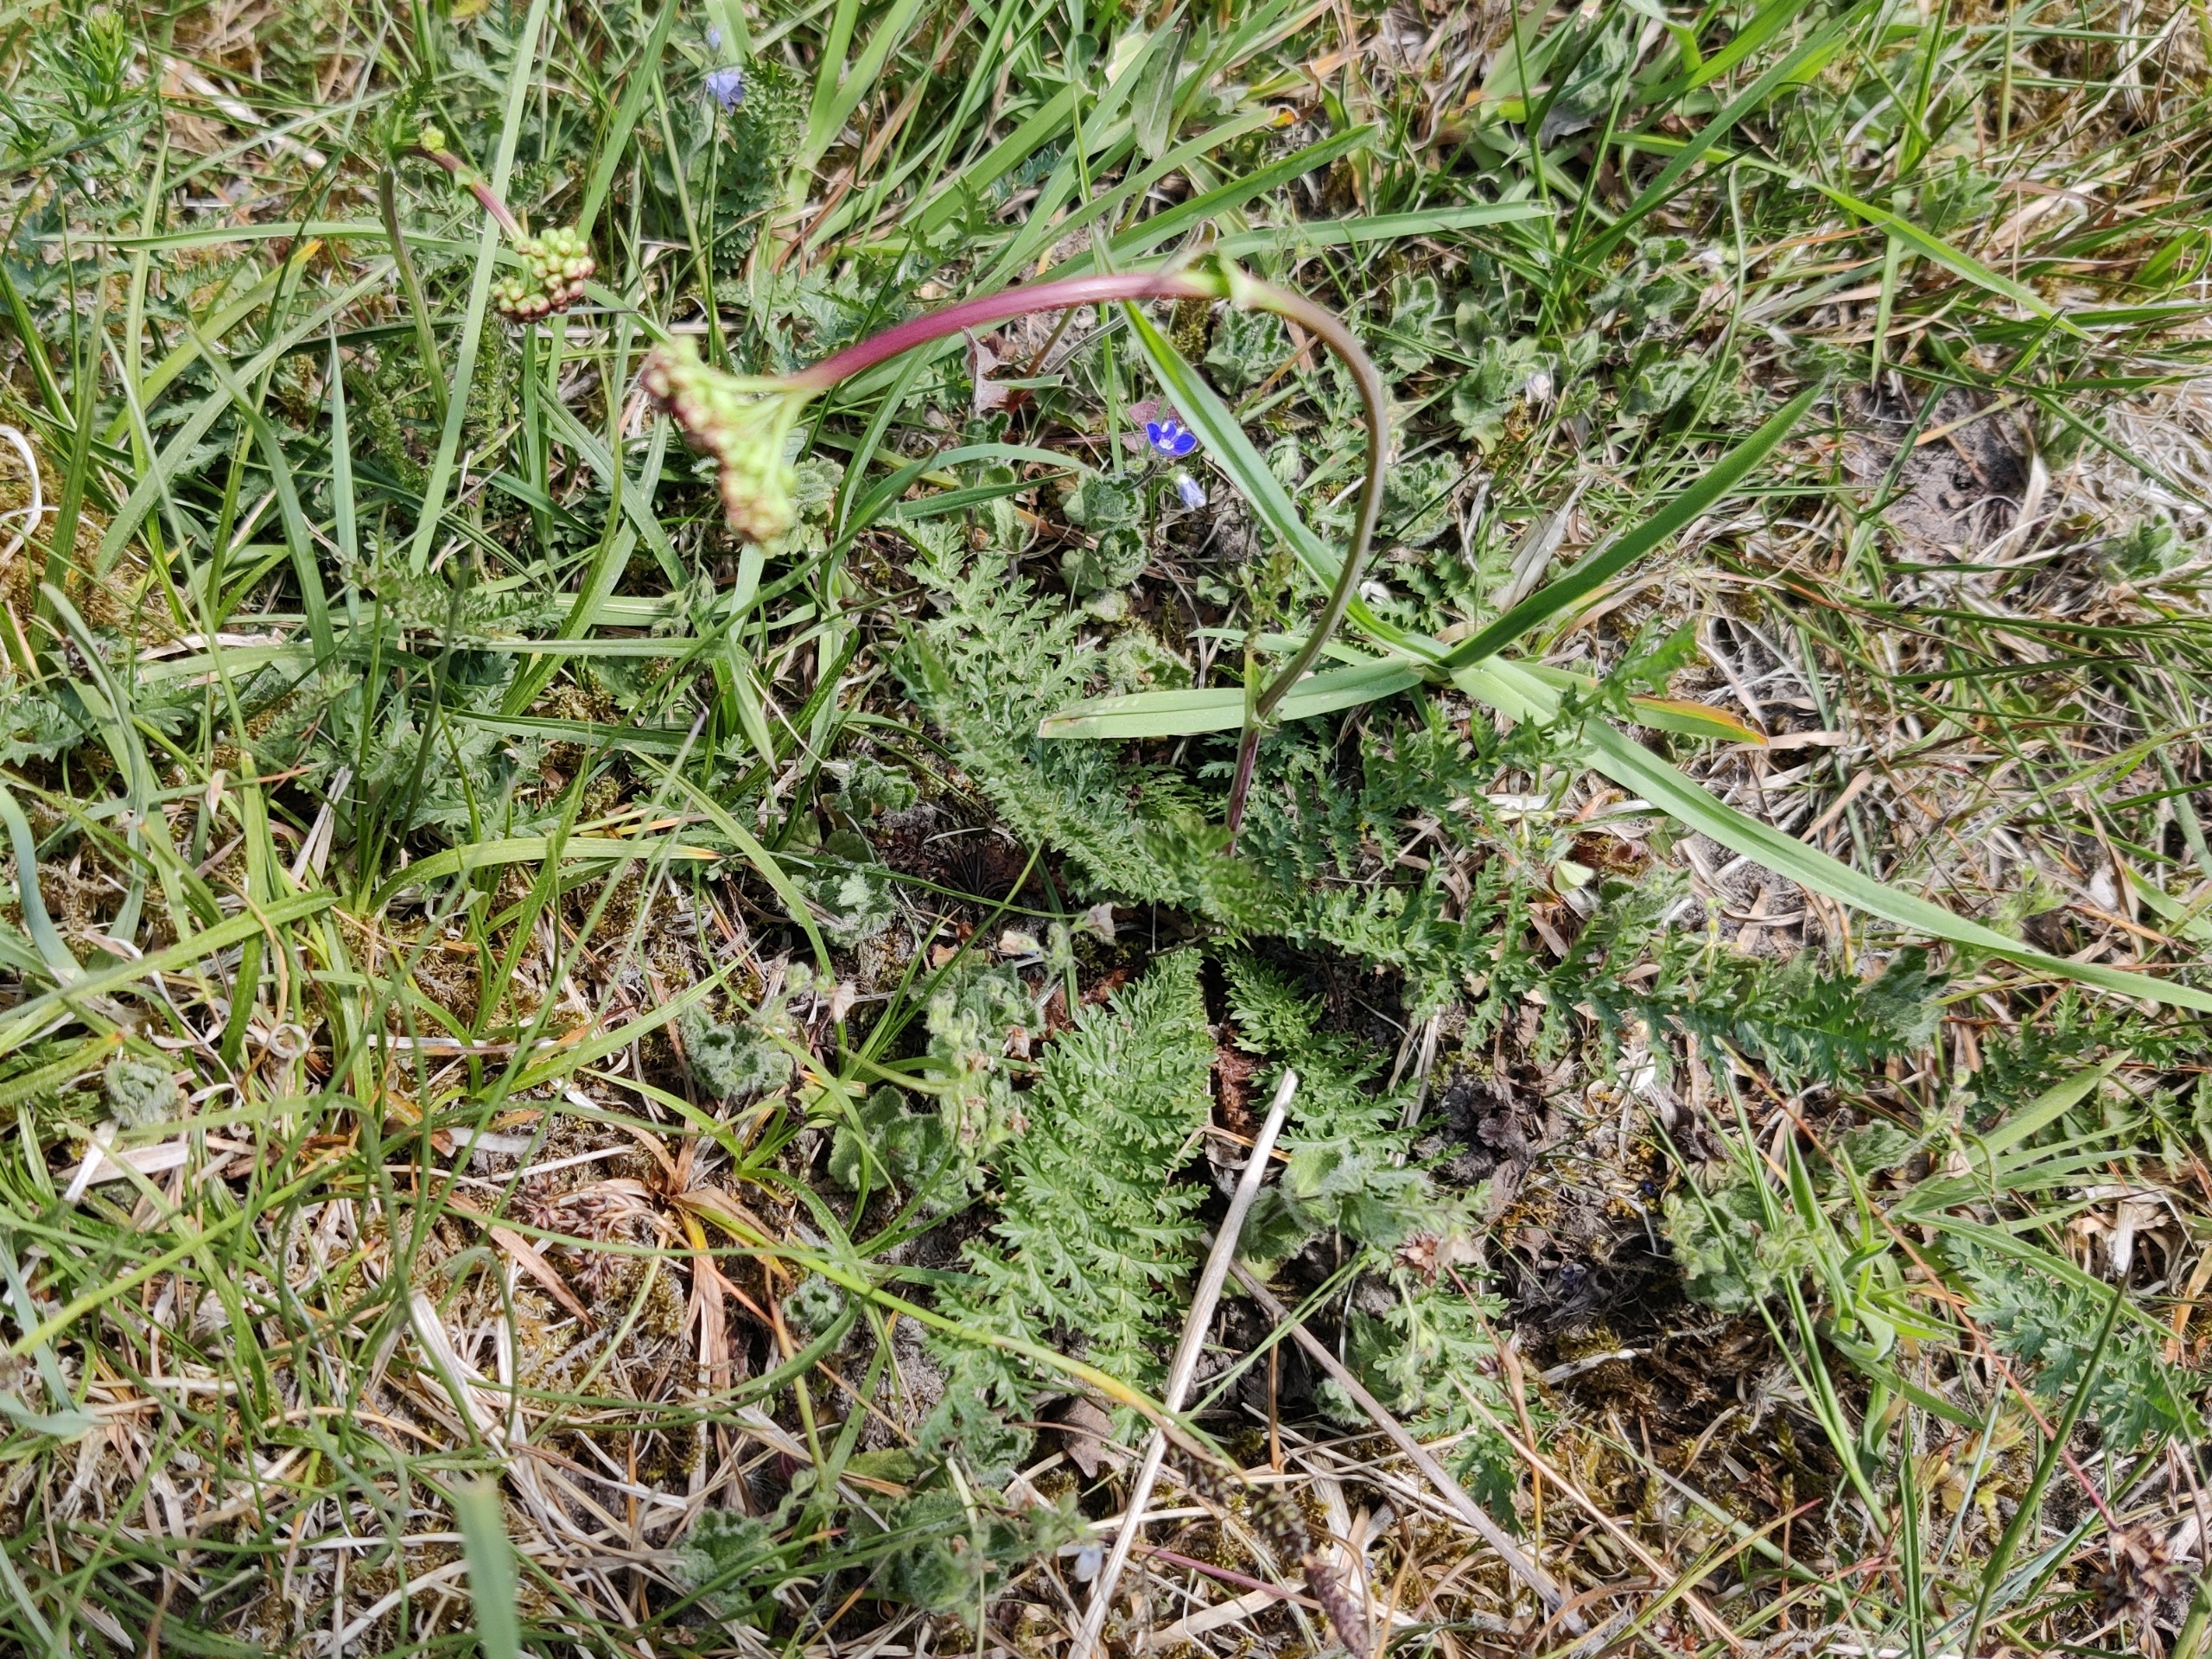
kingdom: Plantae
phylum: Tracheophyta
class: Magnoliopsida
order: Rosales
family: Rosaceae
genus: Filipendula
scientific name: Filipendula vulgaris
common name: Knoldet mjødurt
